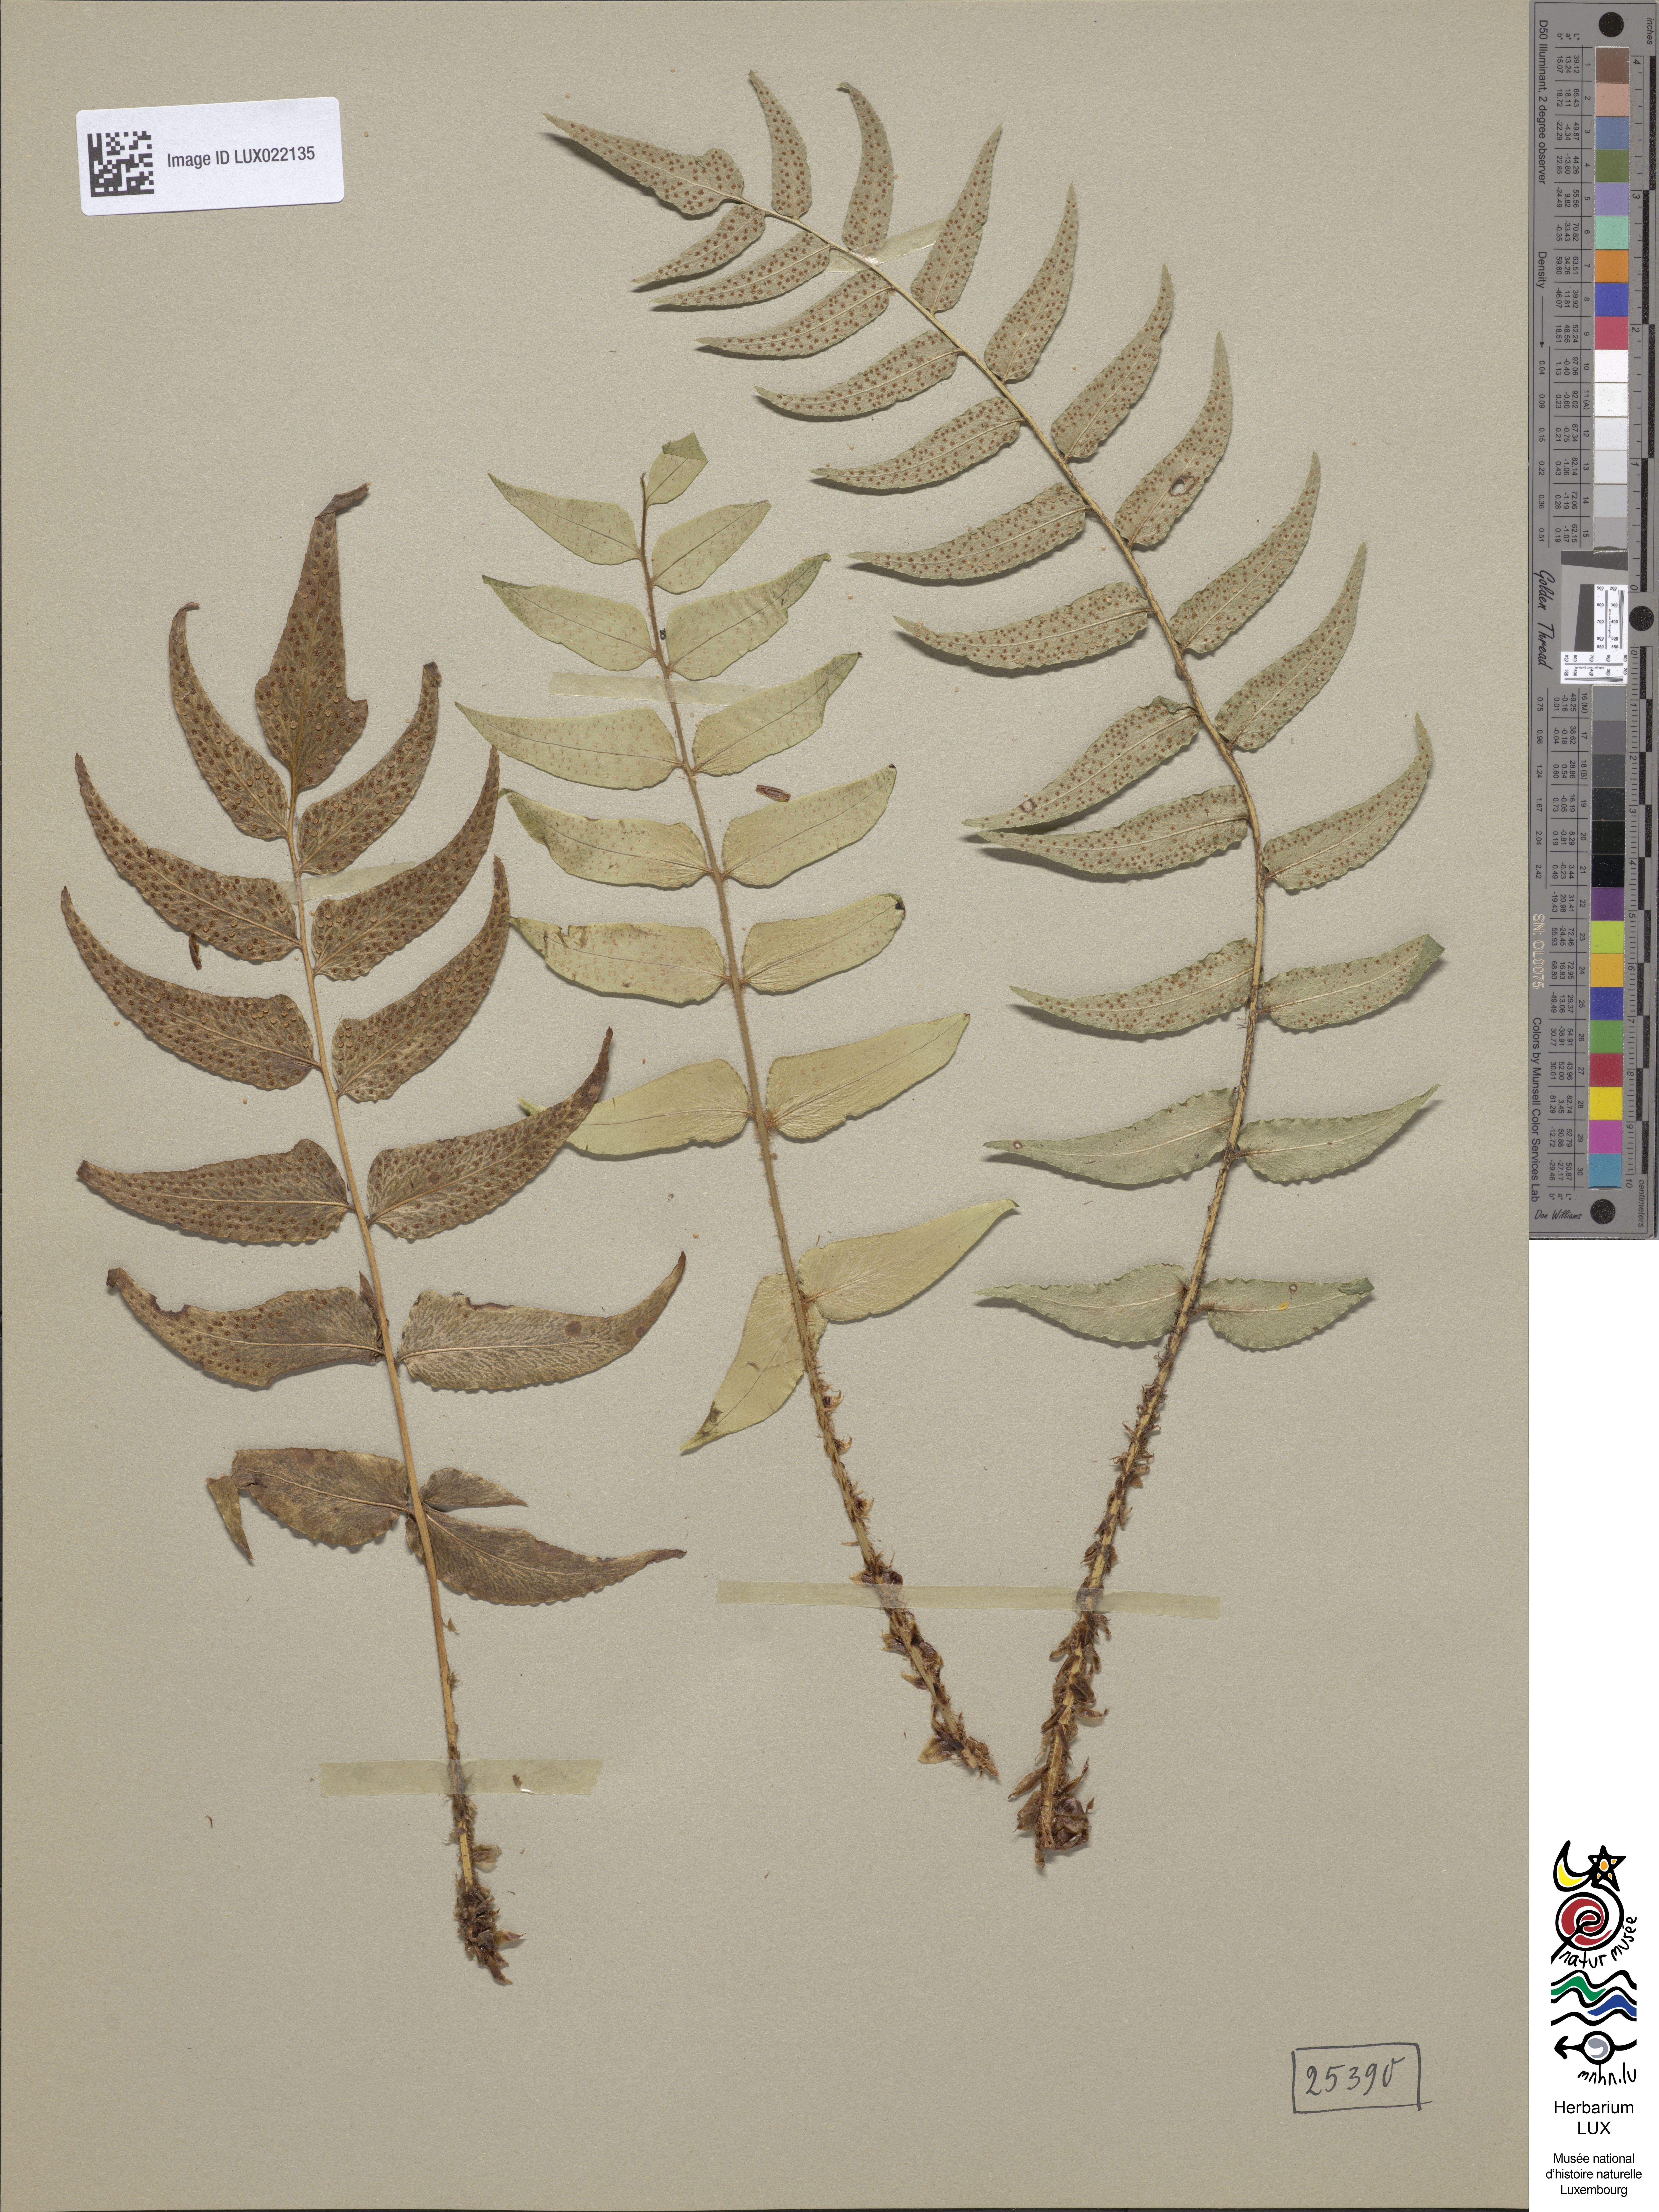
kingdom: Plantae
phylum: Tracheophyta
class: Polypodiopsida
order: Polypodiales
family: Dryopteridaceae
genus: Cyrtomium
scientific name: Cyrtomium falcatum
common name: House holly-fern
